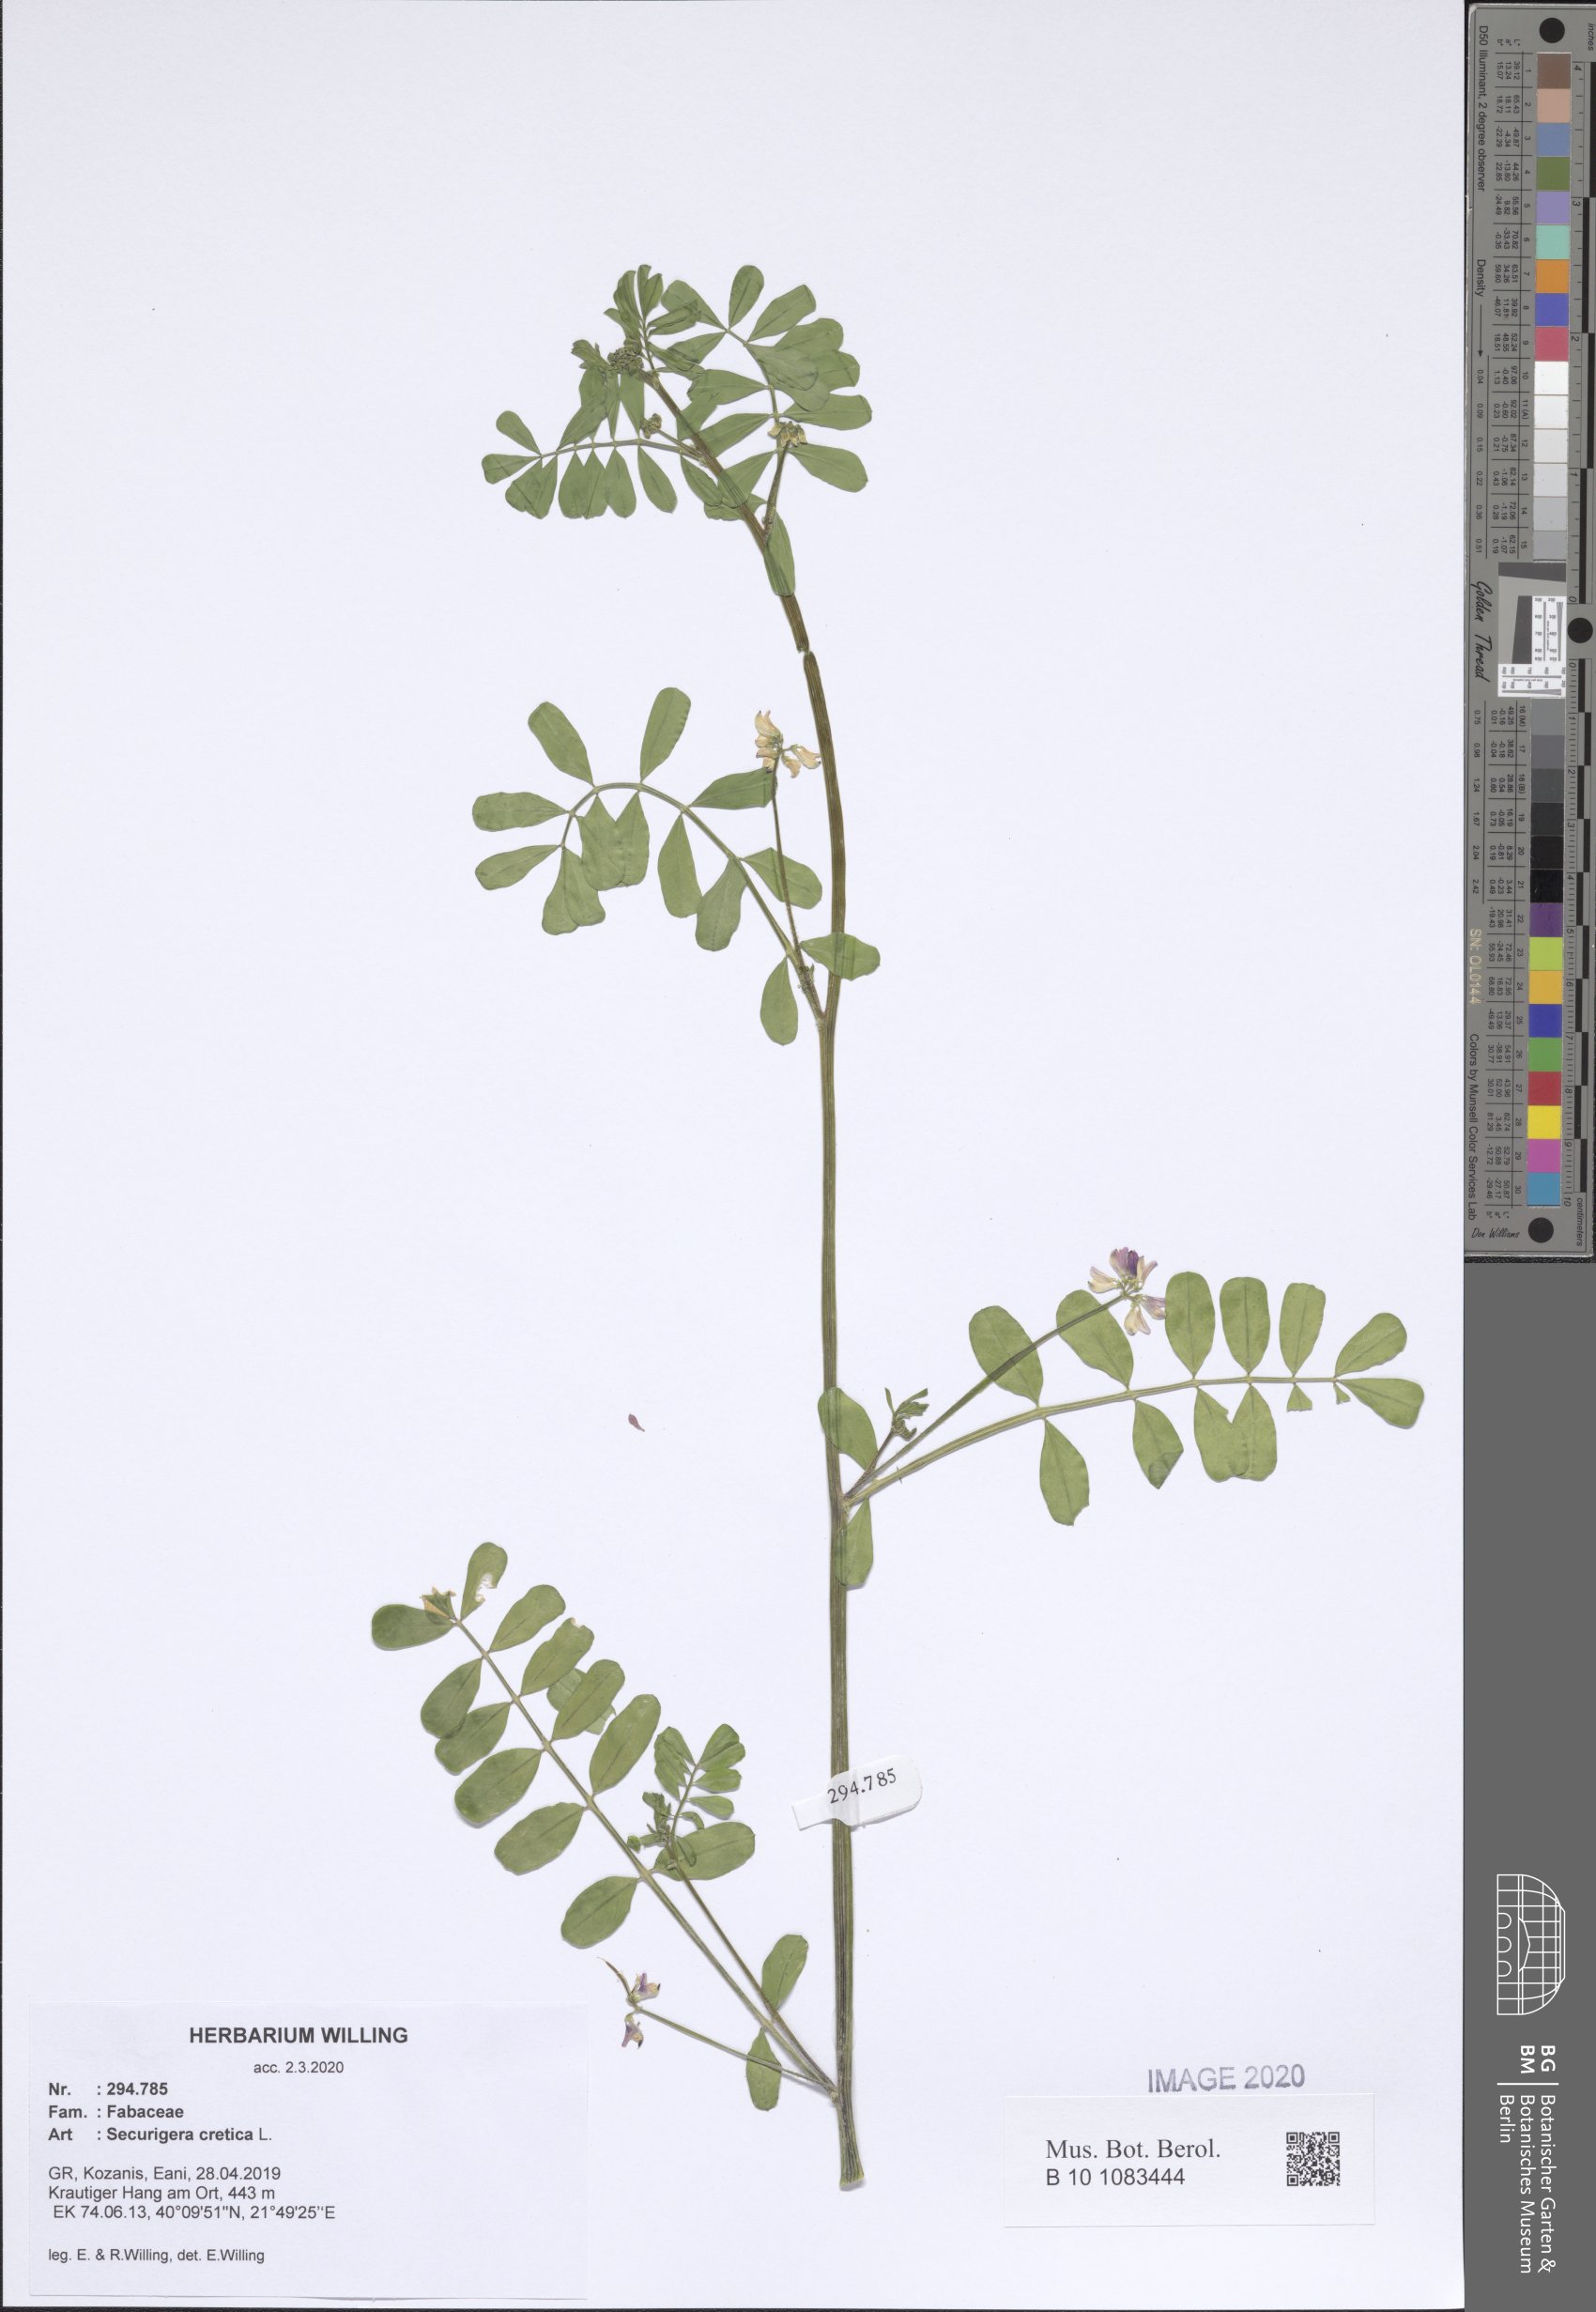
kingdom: Plantae
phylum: Tracheophyta
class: Magnoliopsida
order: Fabales
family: Fabaceae
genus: Coronilla
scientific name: Coronilla cretica
